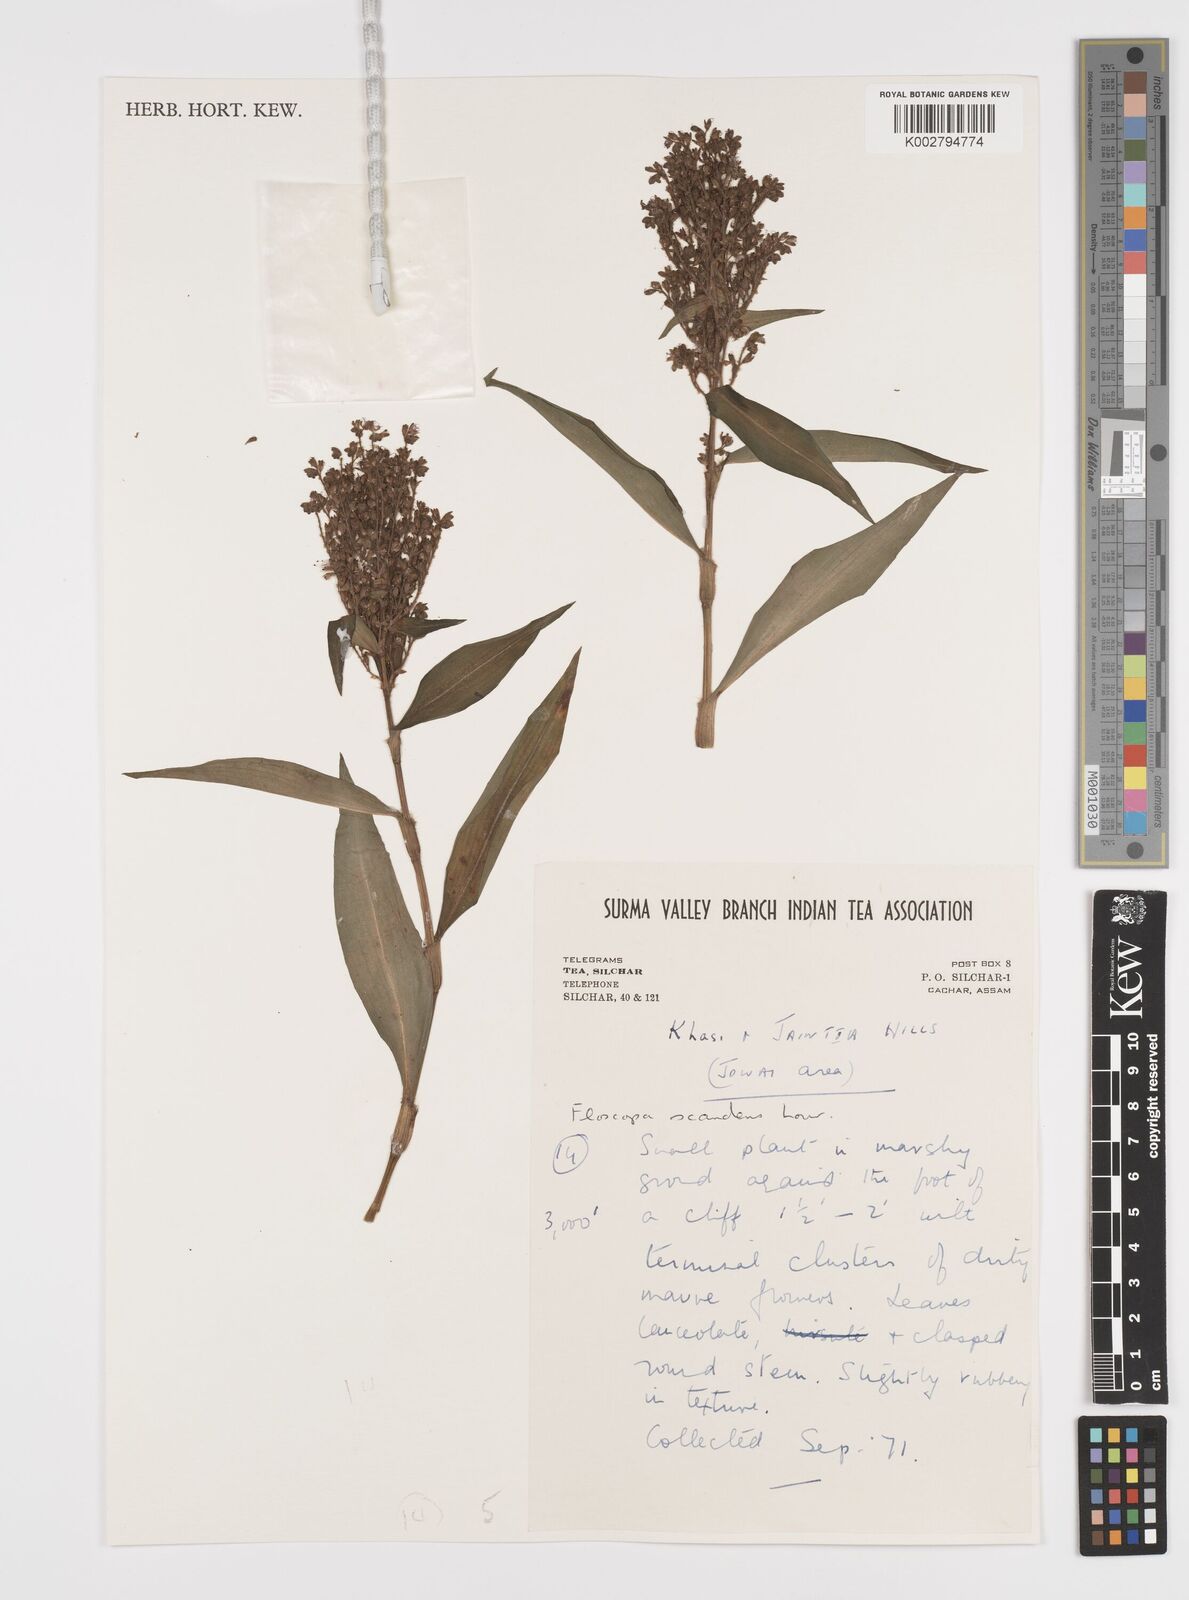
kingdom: Plantae
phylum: Tracheophyta
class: Liliopsida
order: Commelinales
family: Commelinaceae
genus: Floscopa
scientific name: Floscopa scandens
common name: Climbing flower cup
